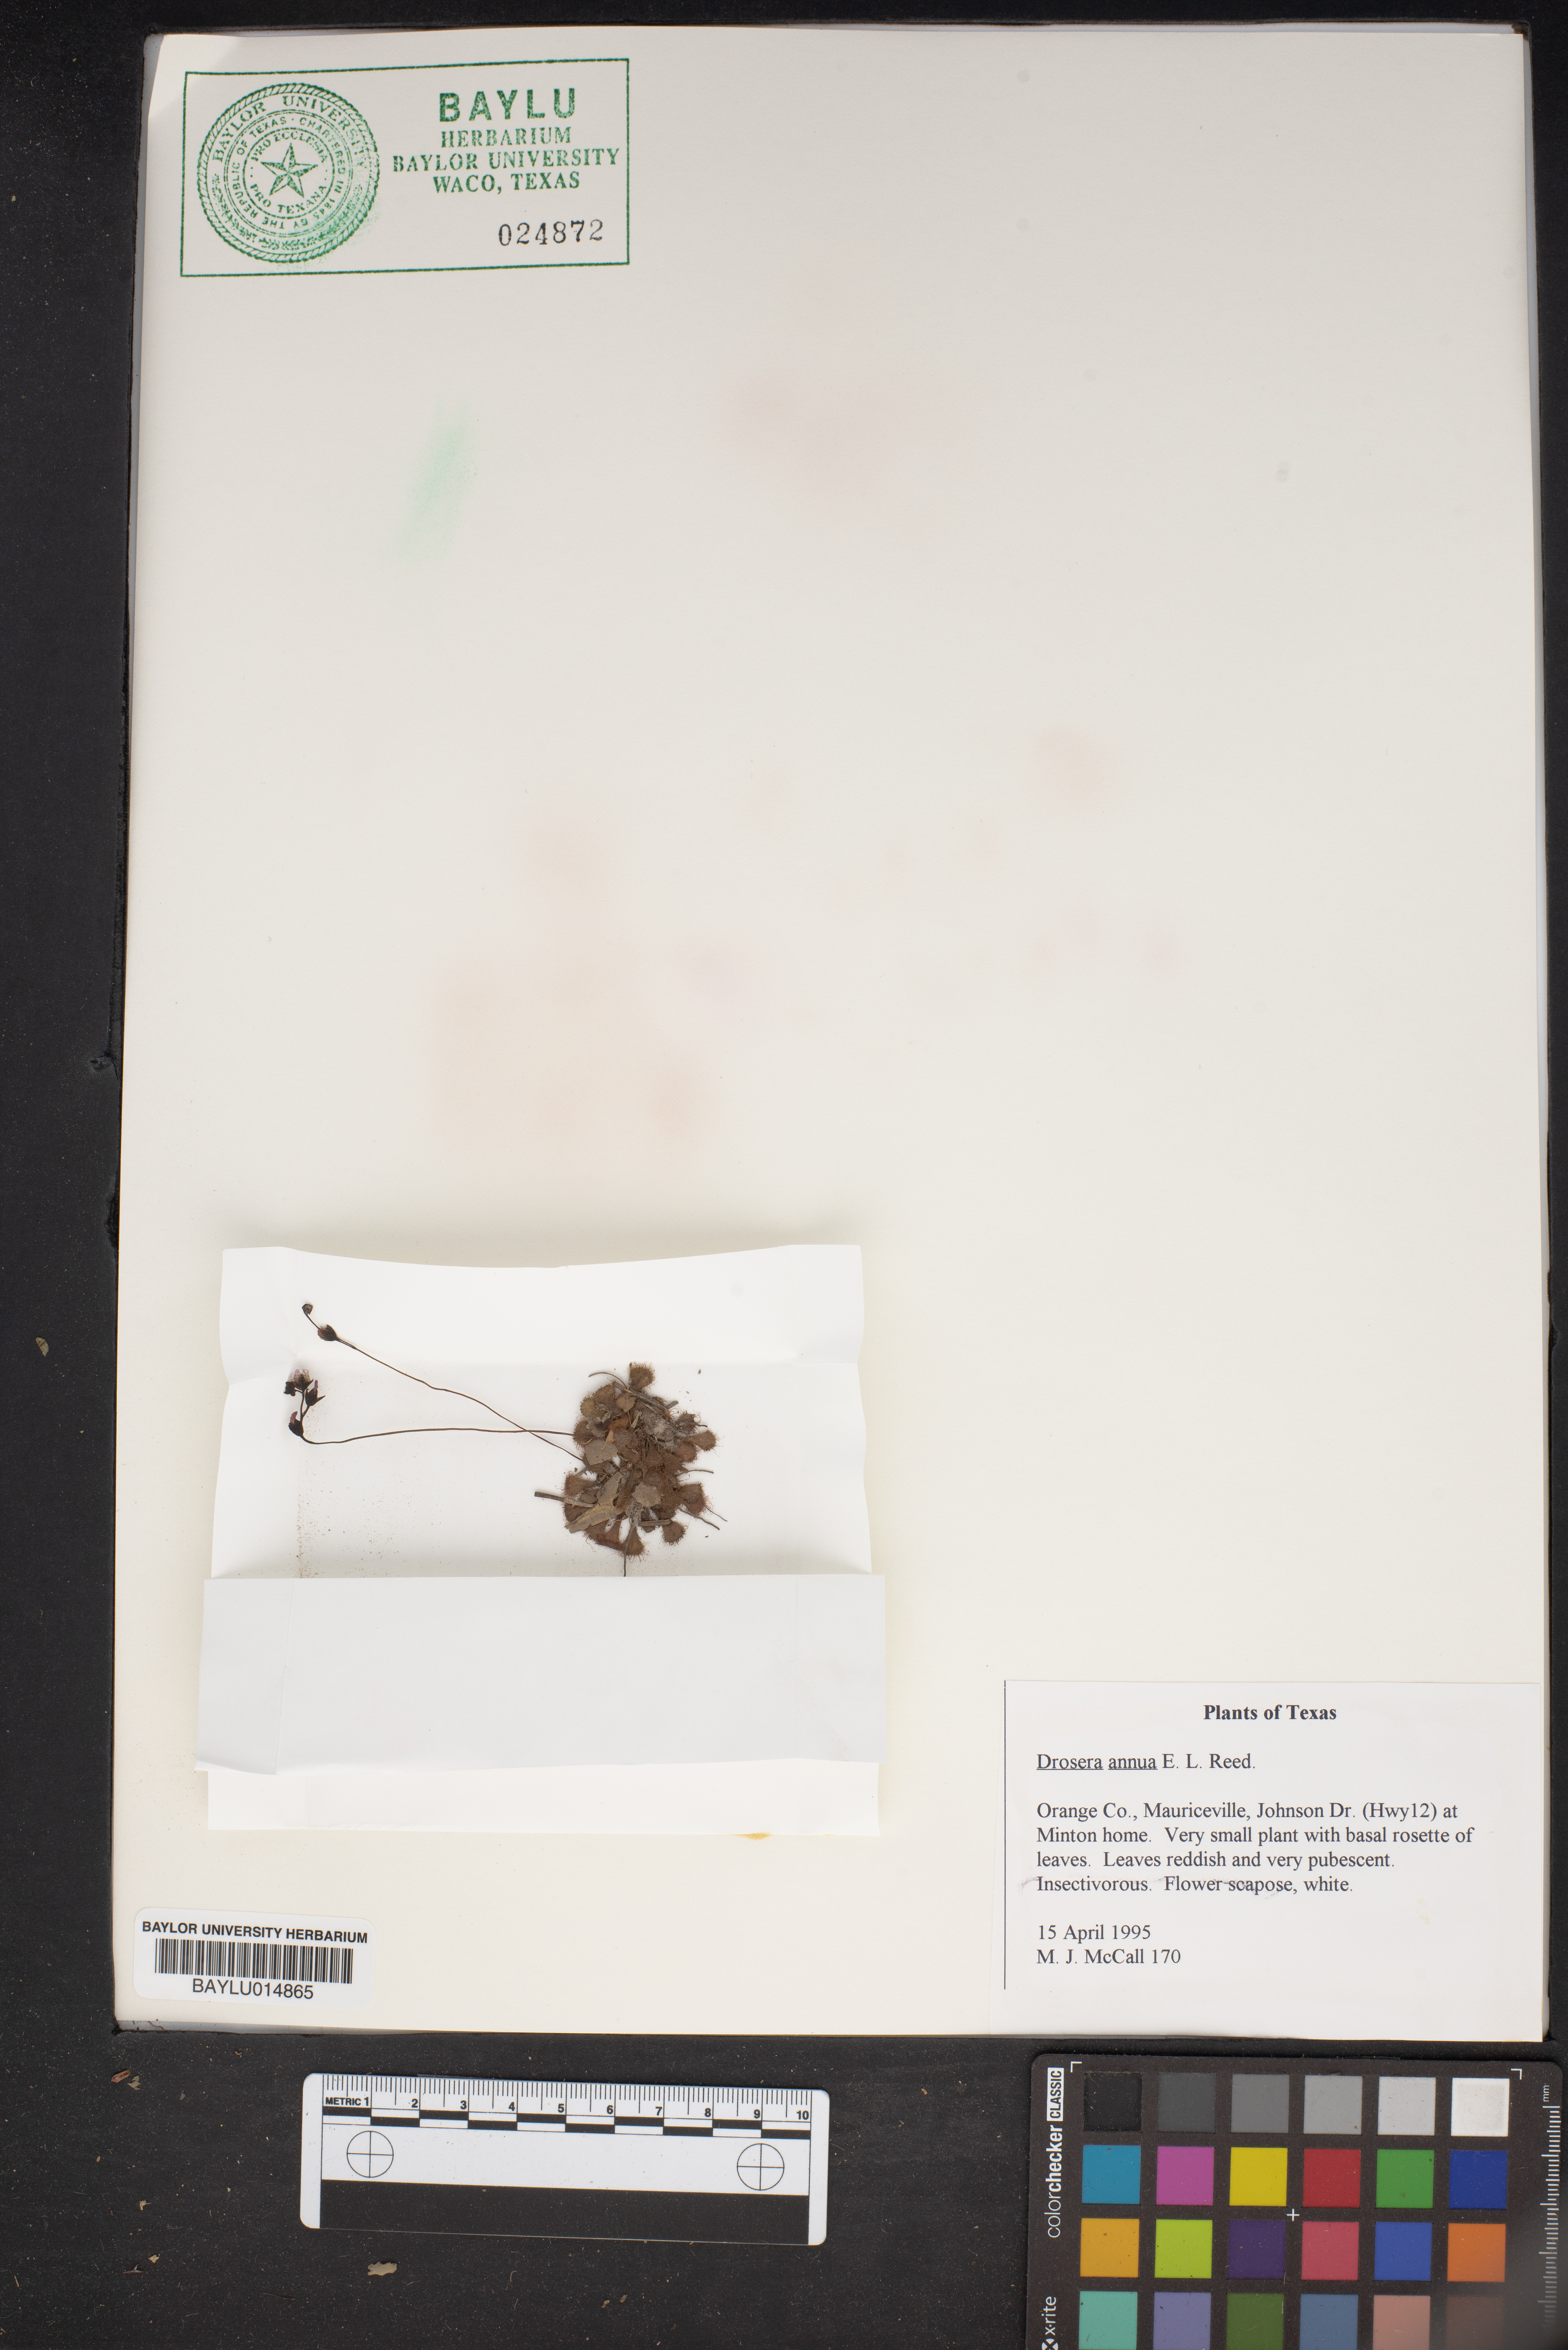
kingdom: Plantae
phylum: Tracheophyta
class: Magnoliopsida
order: Caryophyllales
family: Droseraceae
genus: Drosera
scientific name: Drosera brevifolia
